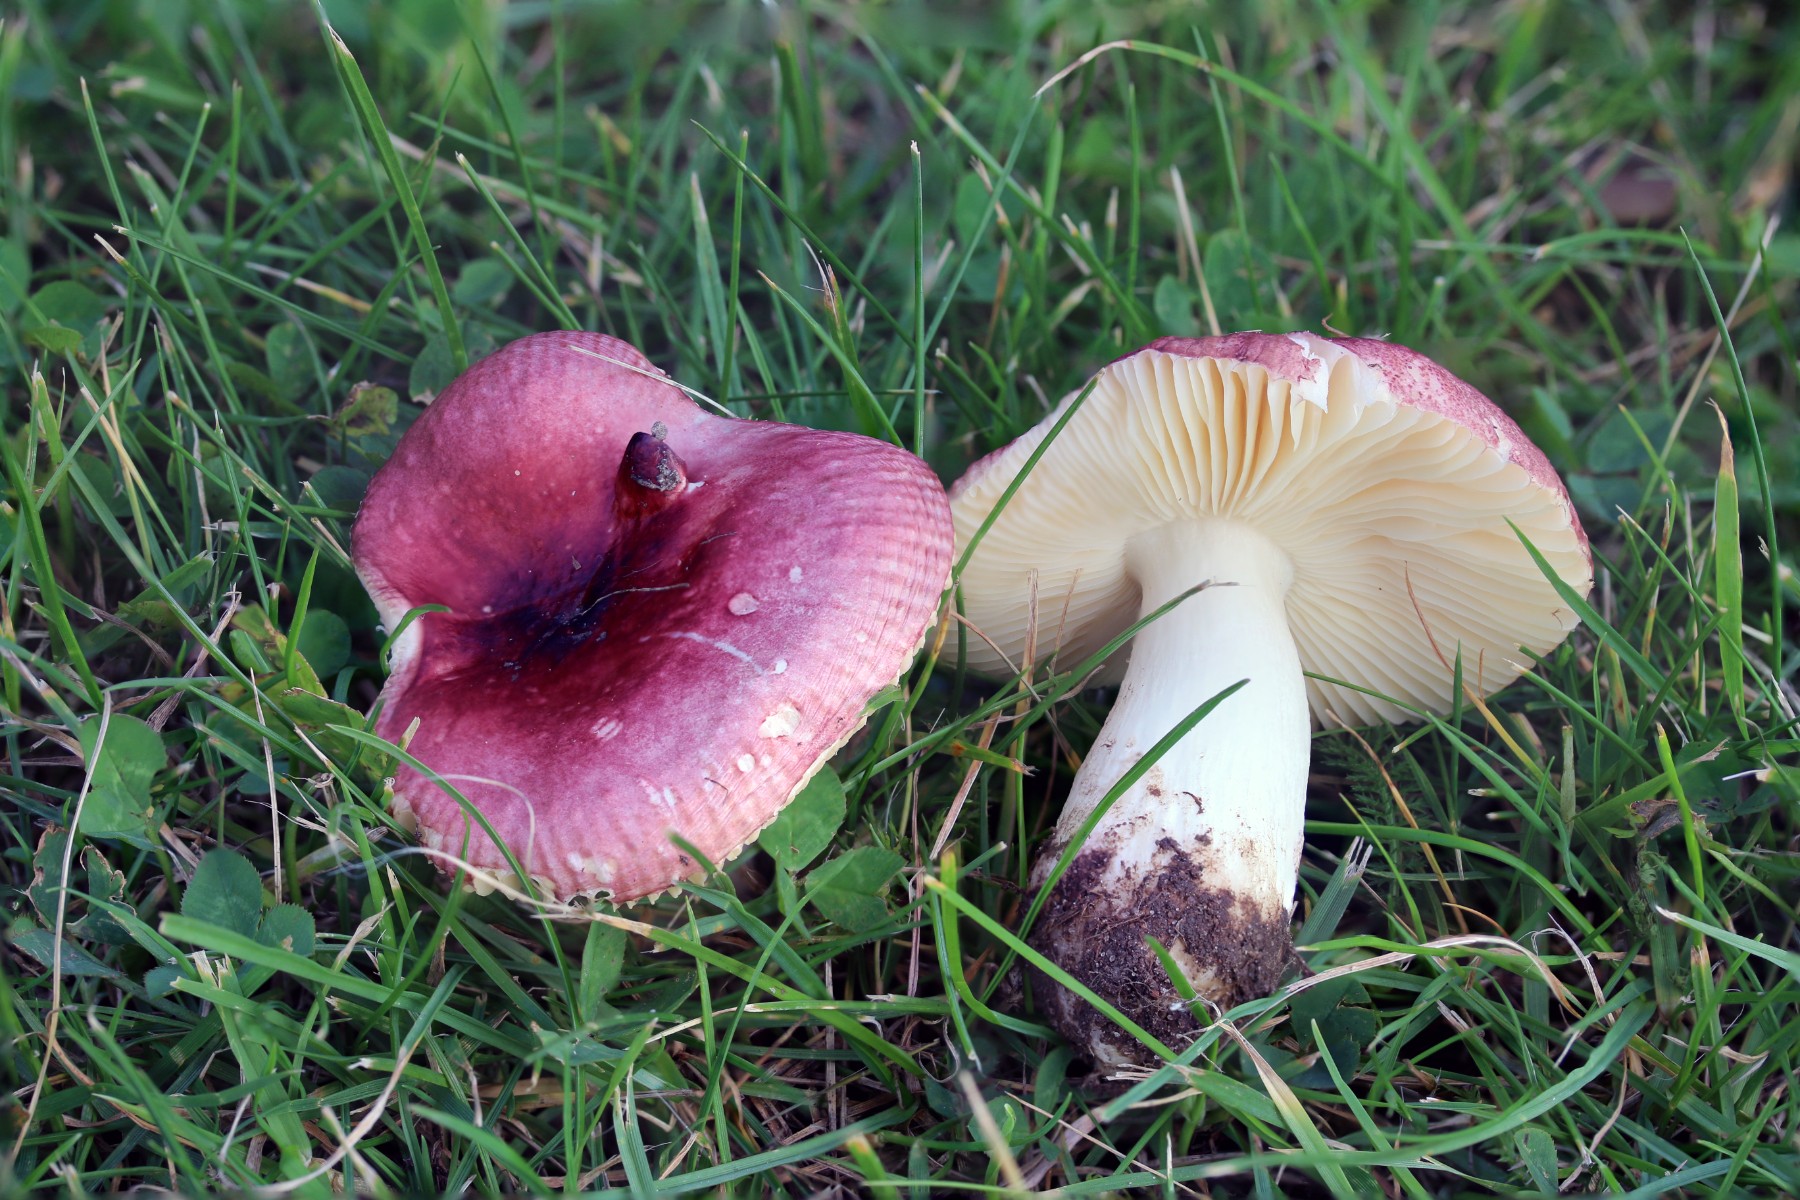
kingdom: Fungi
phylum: Basidiomycota
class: Agaricomycetes
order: Russulales
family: Russulaceae
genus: Russula
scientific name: Russula cessans
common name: fyrre-skørhat
